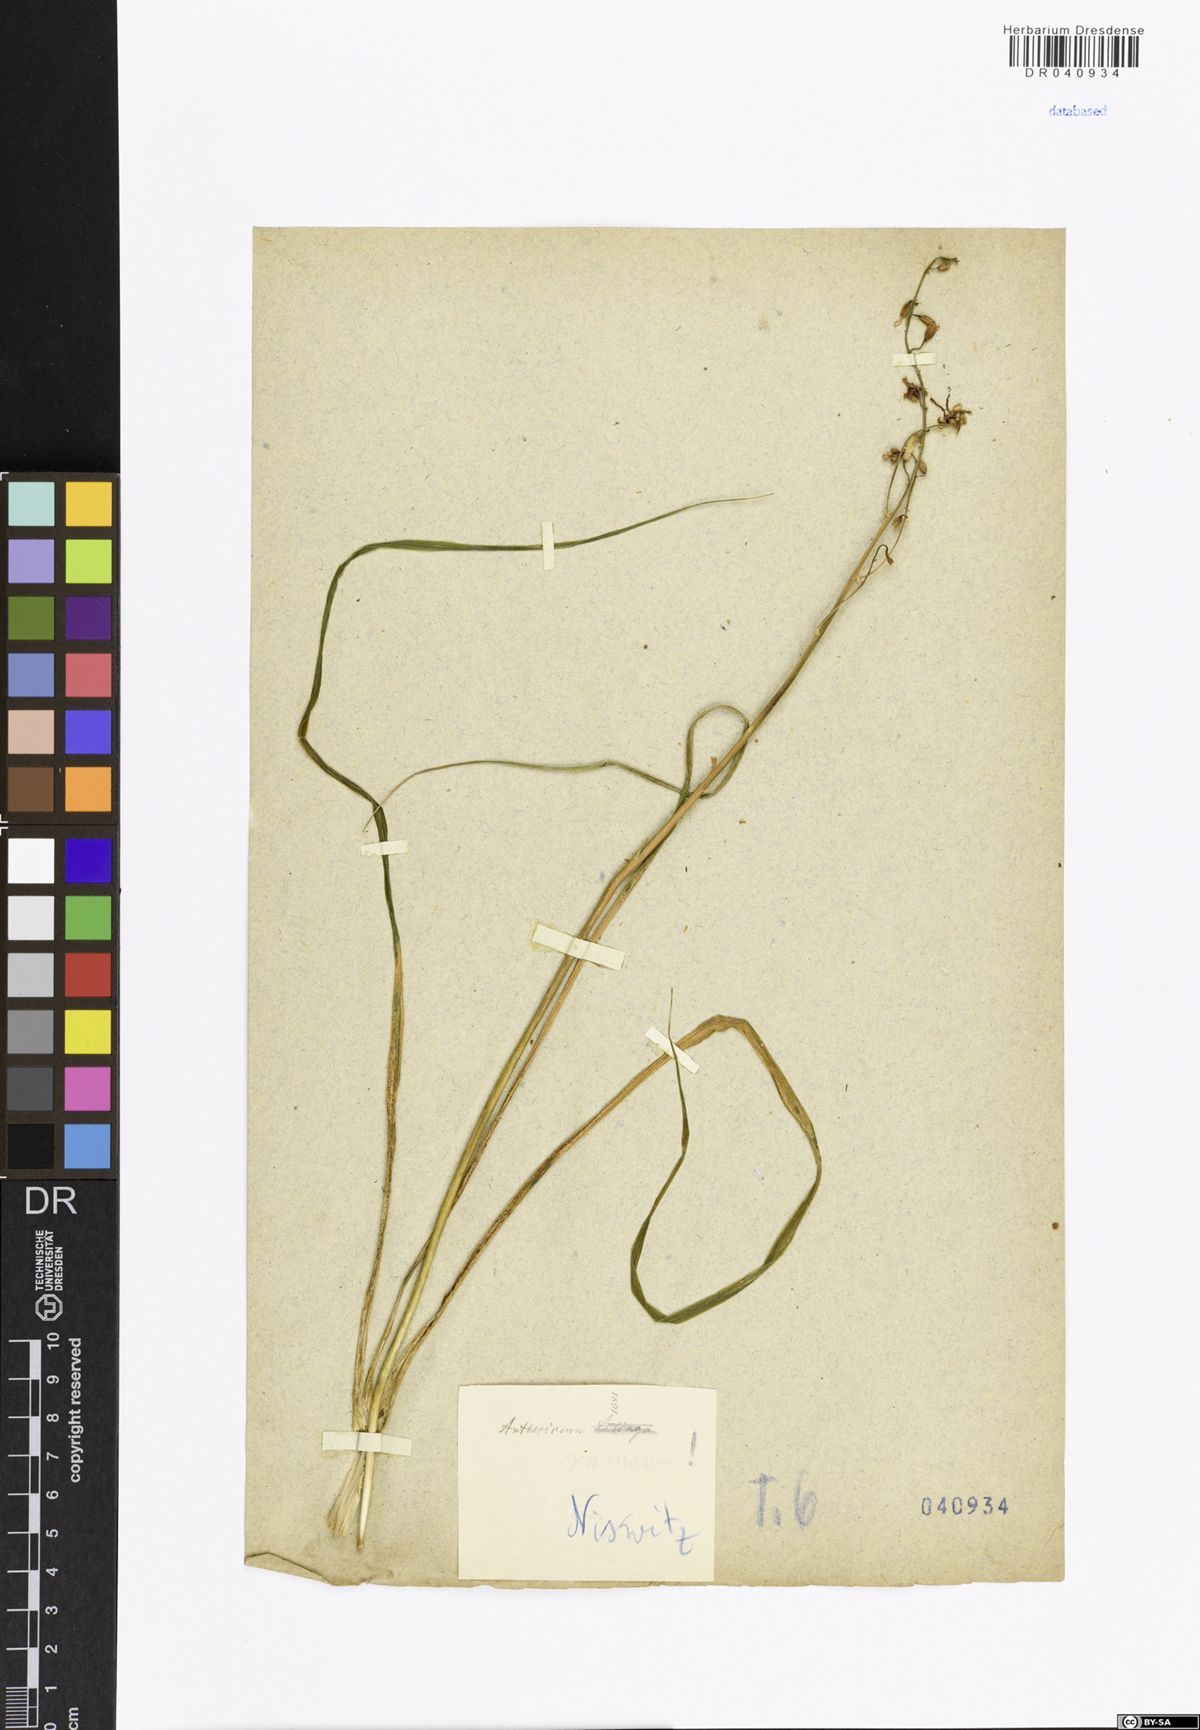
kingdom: Plantae
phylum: Tracheophyta
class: Liliopsida
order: Asparagales
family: Asparagaceae
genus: Anthericum
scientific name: Anthericum ramosum
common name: Branched st. bernard's-lily
